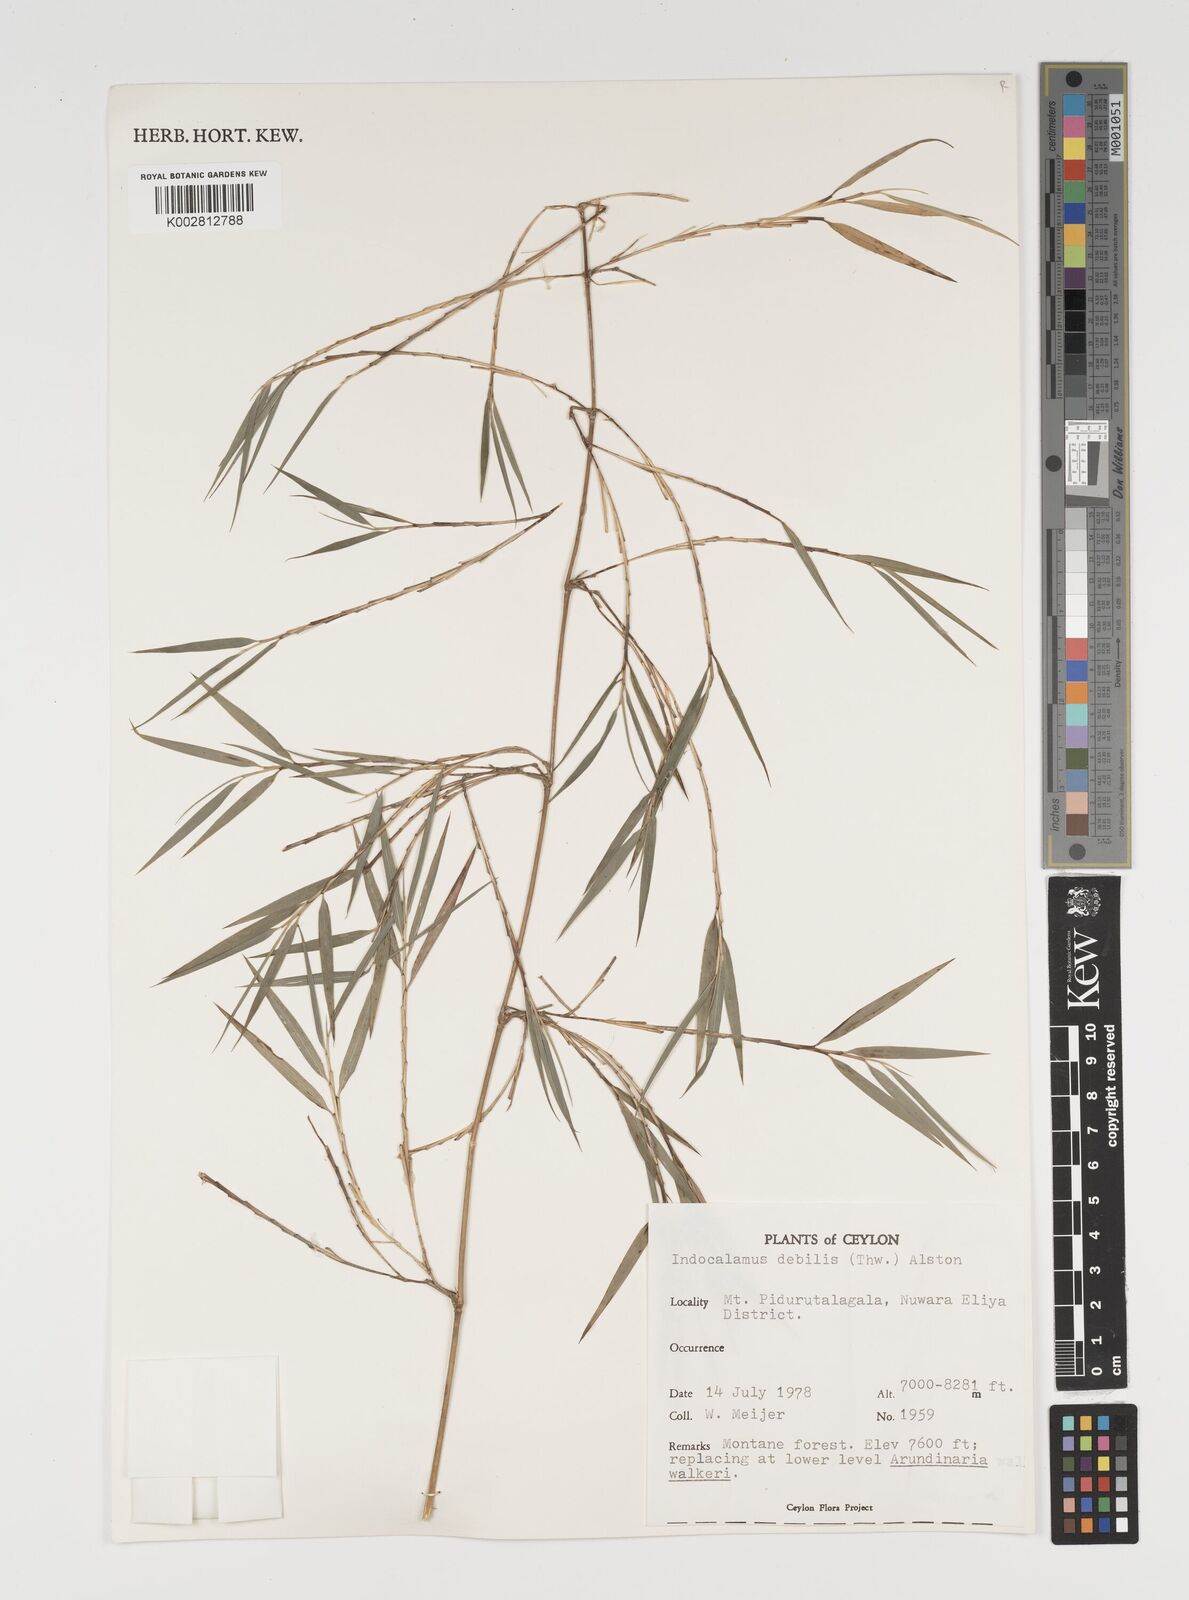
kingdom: Plantae
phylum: Tracheophyta
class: Liliopsida
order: Poales
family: Poaceae
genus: Kuruna
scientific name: Kuruna debilis
